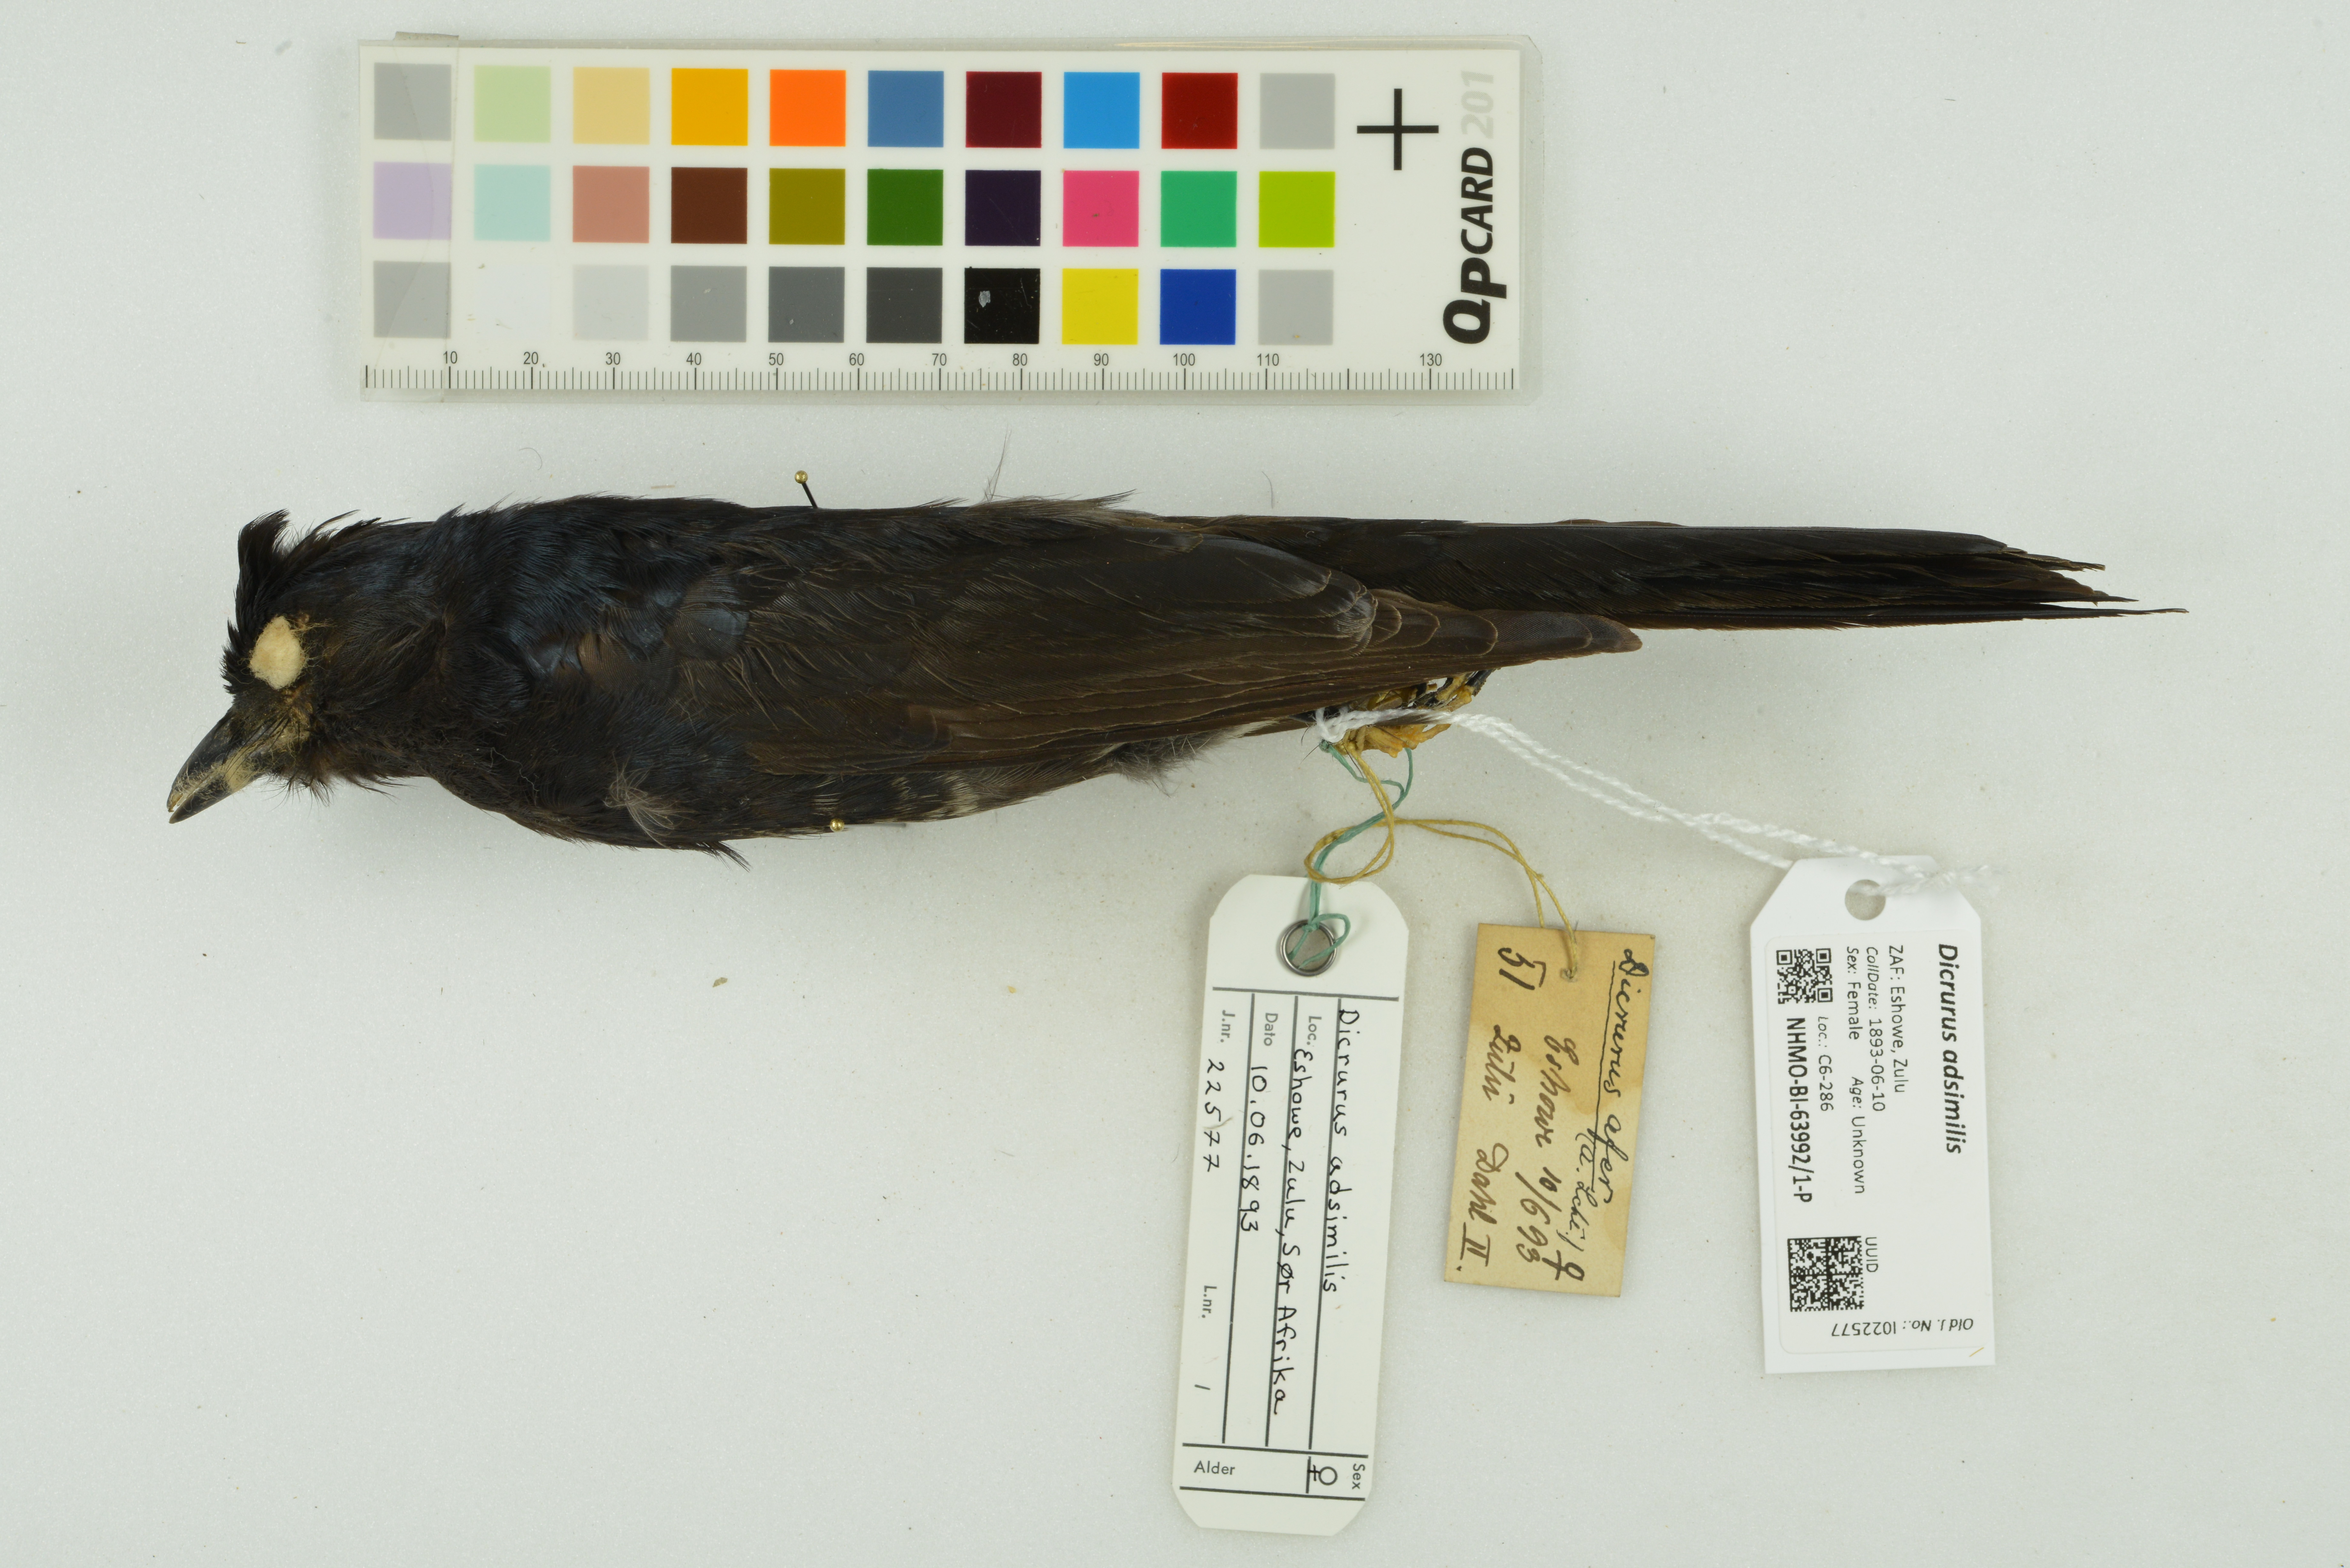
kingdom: Animalia
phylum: Chordata
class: Aves
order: Passeriformes
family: Dicruridae
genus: Dicrurus
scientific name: Dicrurus adsimilis
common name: Fork-tailed drongo
